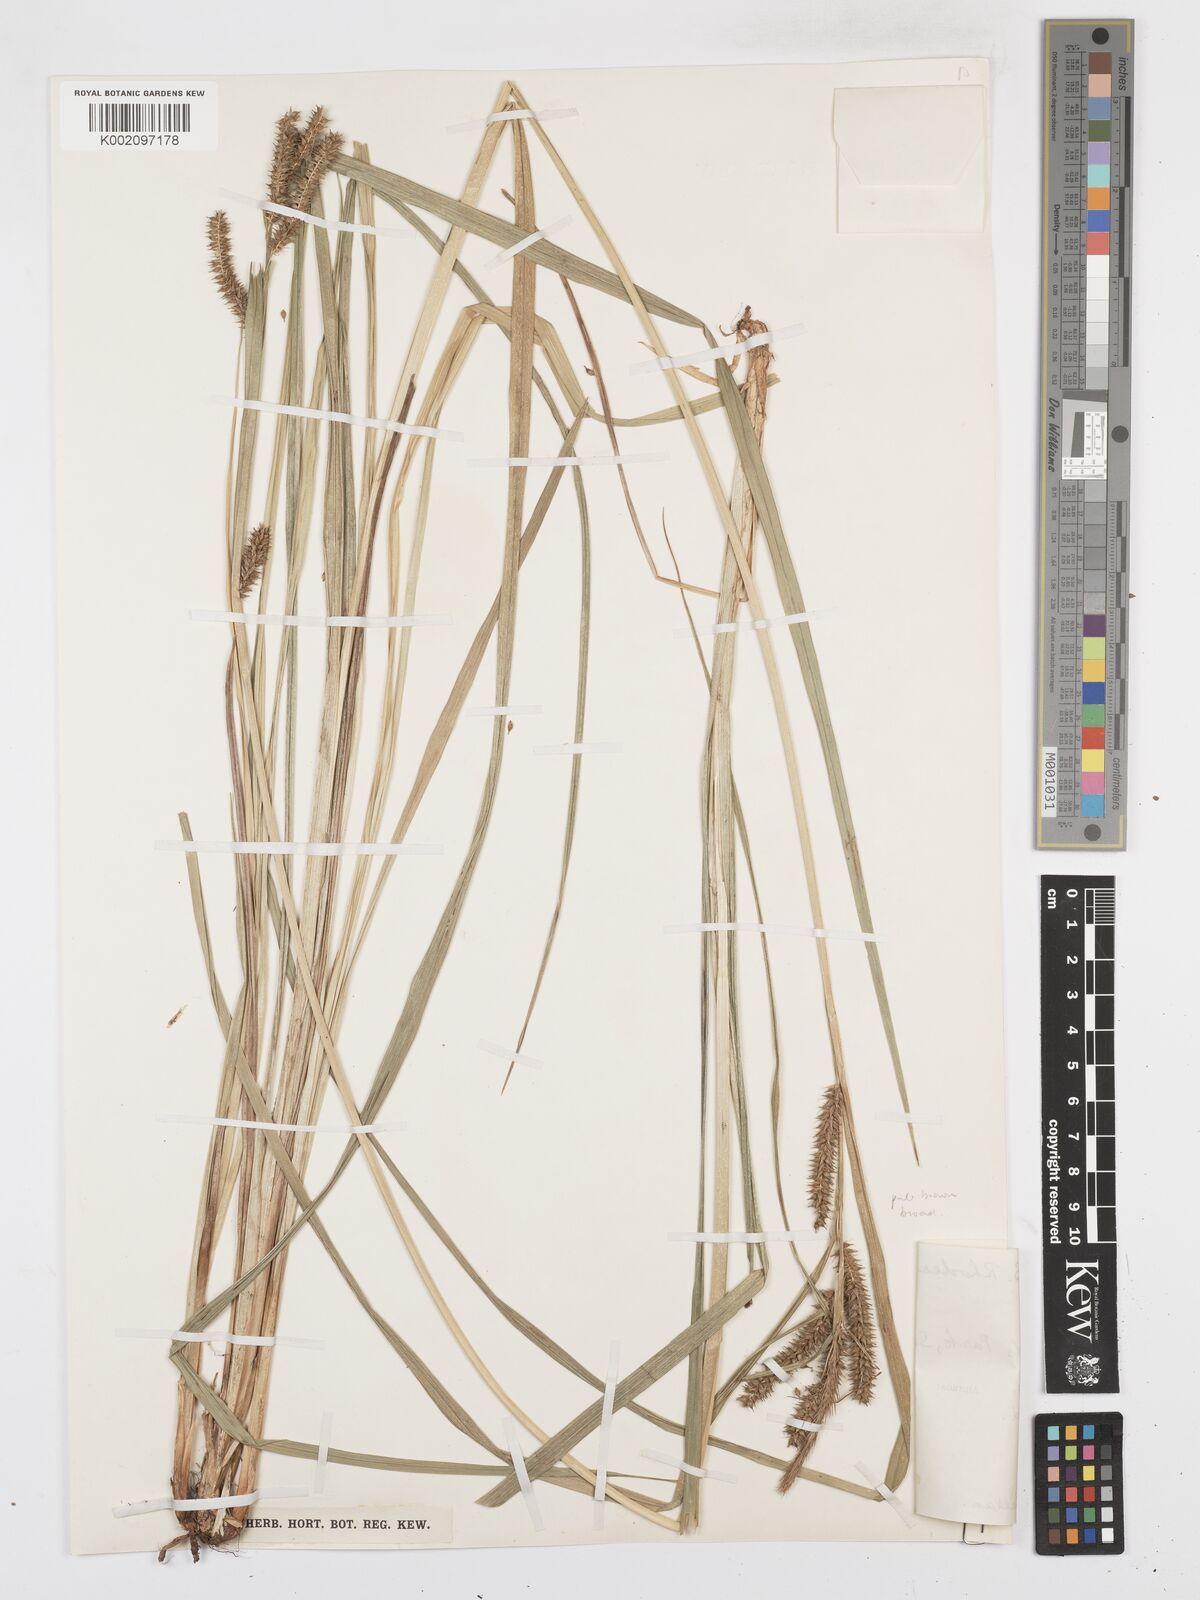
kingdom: Plantae
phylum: Tracheophyta
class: Liliopsida
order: Poales
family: Cyperaceae
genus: Carex
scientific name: Carex congolensis
